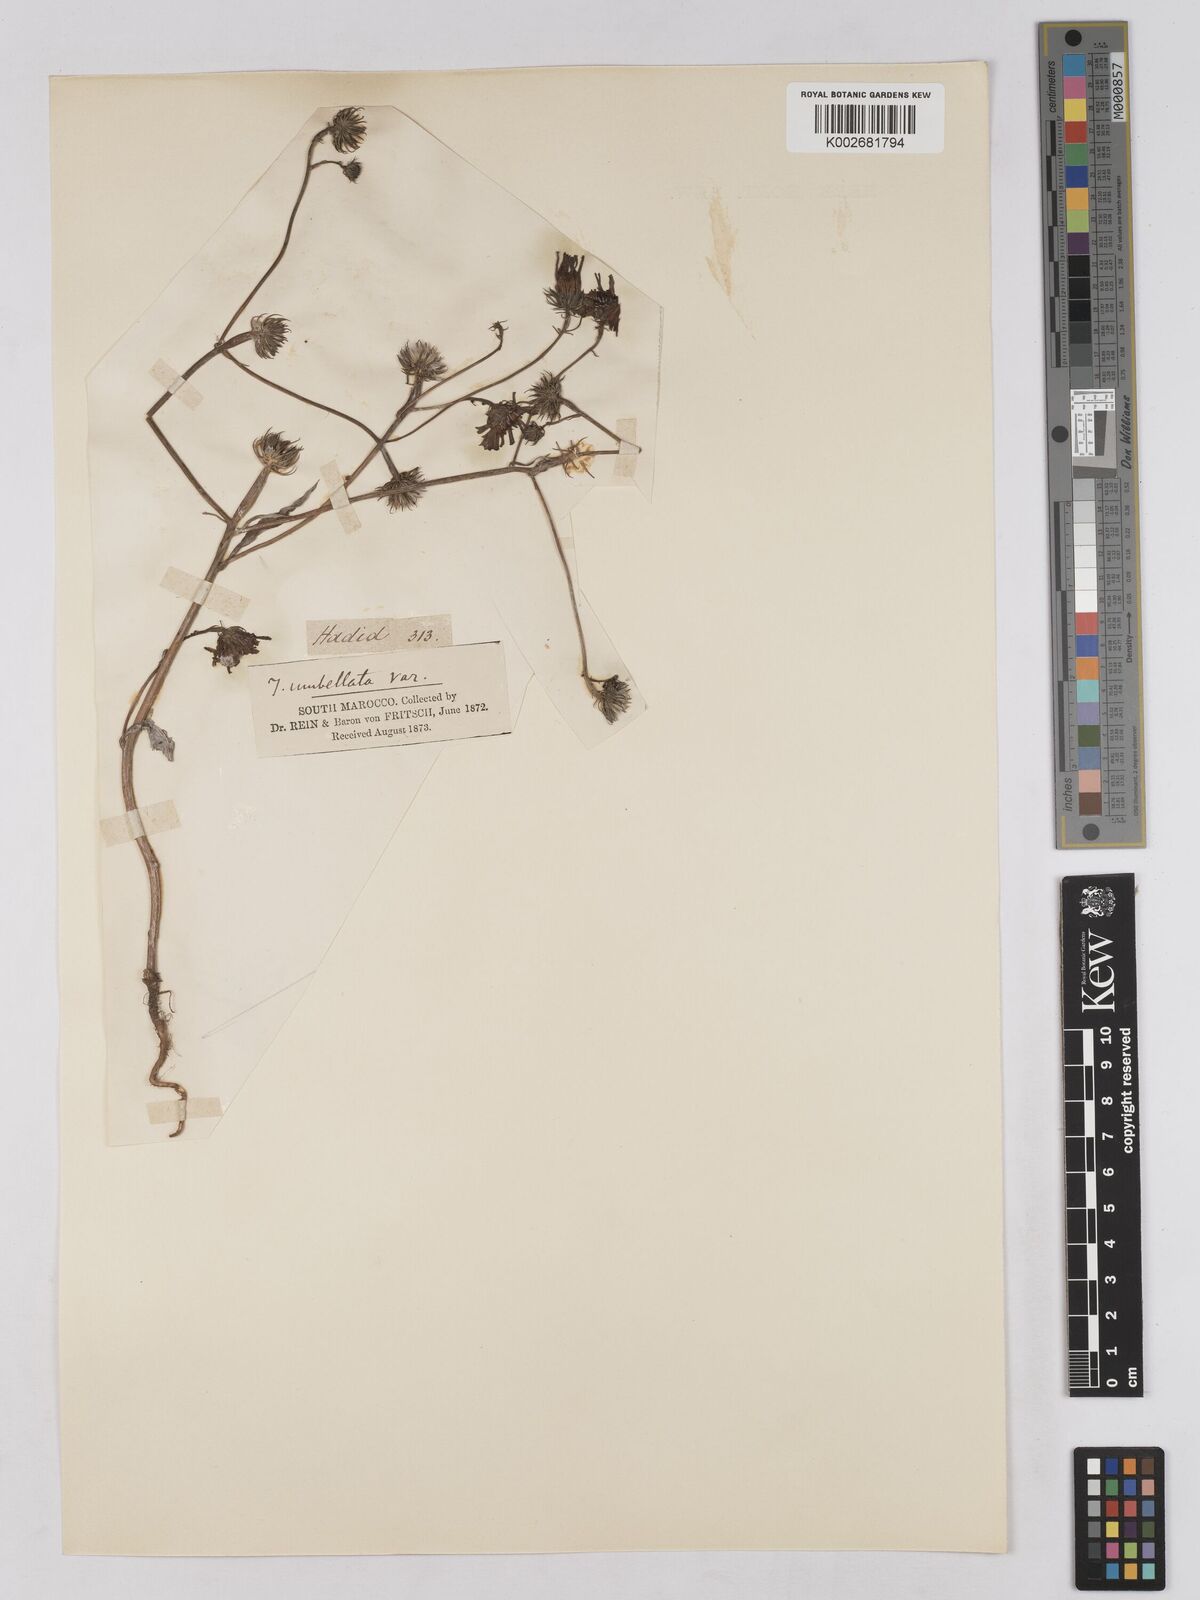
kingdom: Plantae
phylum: Tracheophyta
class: Magnoliopsida
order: Asterales
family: Asteraceae
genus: Tolpis
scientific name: Tolpis umbellata
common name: Yellow hawkweed
